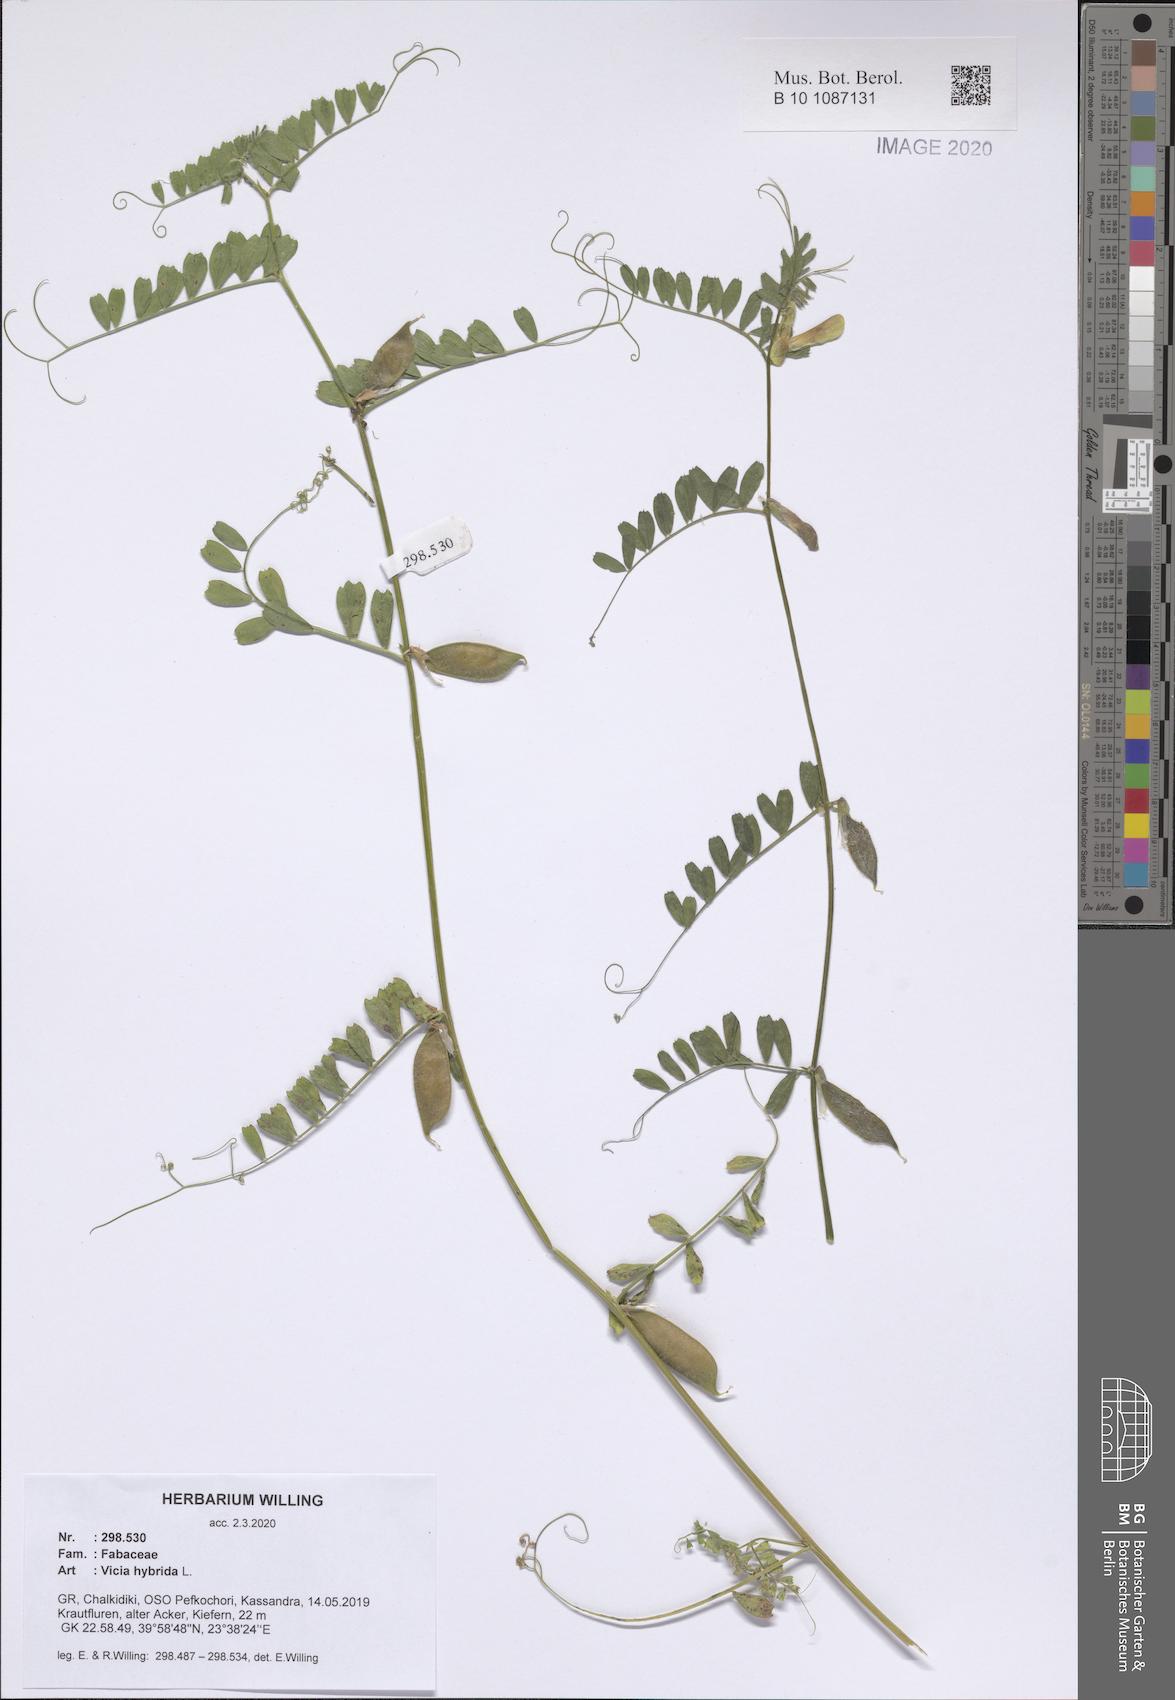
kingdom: Plantae
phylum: Tracheophyta
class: Magnoliopsida
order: Fabales
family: Fabaceae
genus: Vicia
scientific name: Vicia hybrida
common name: Hairy yellow vetch
